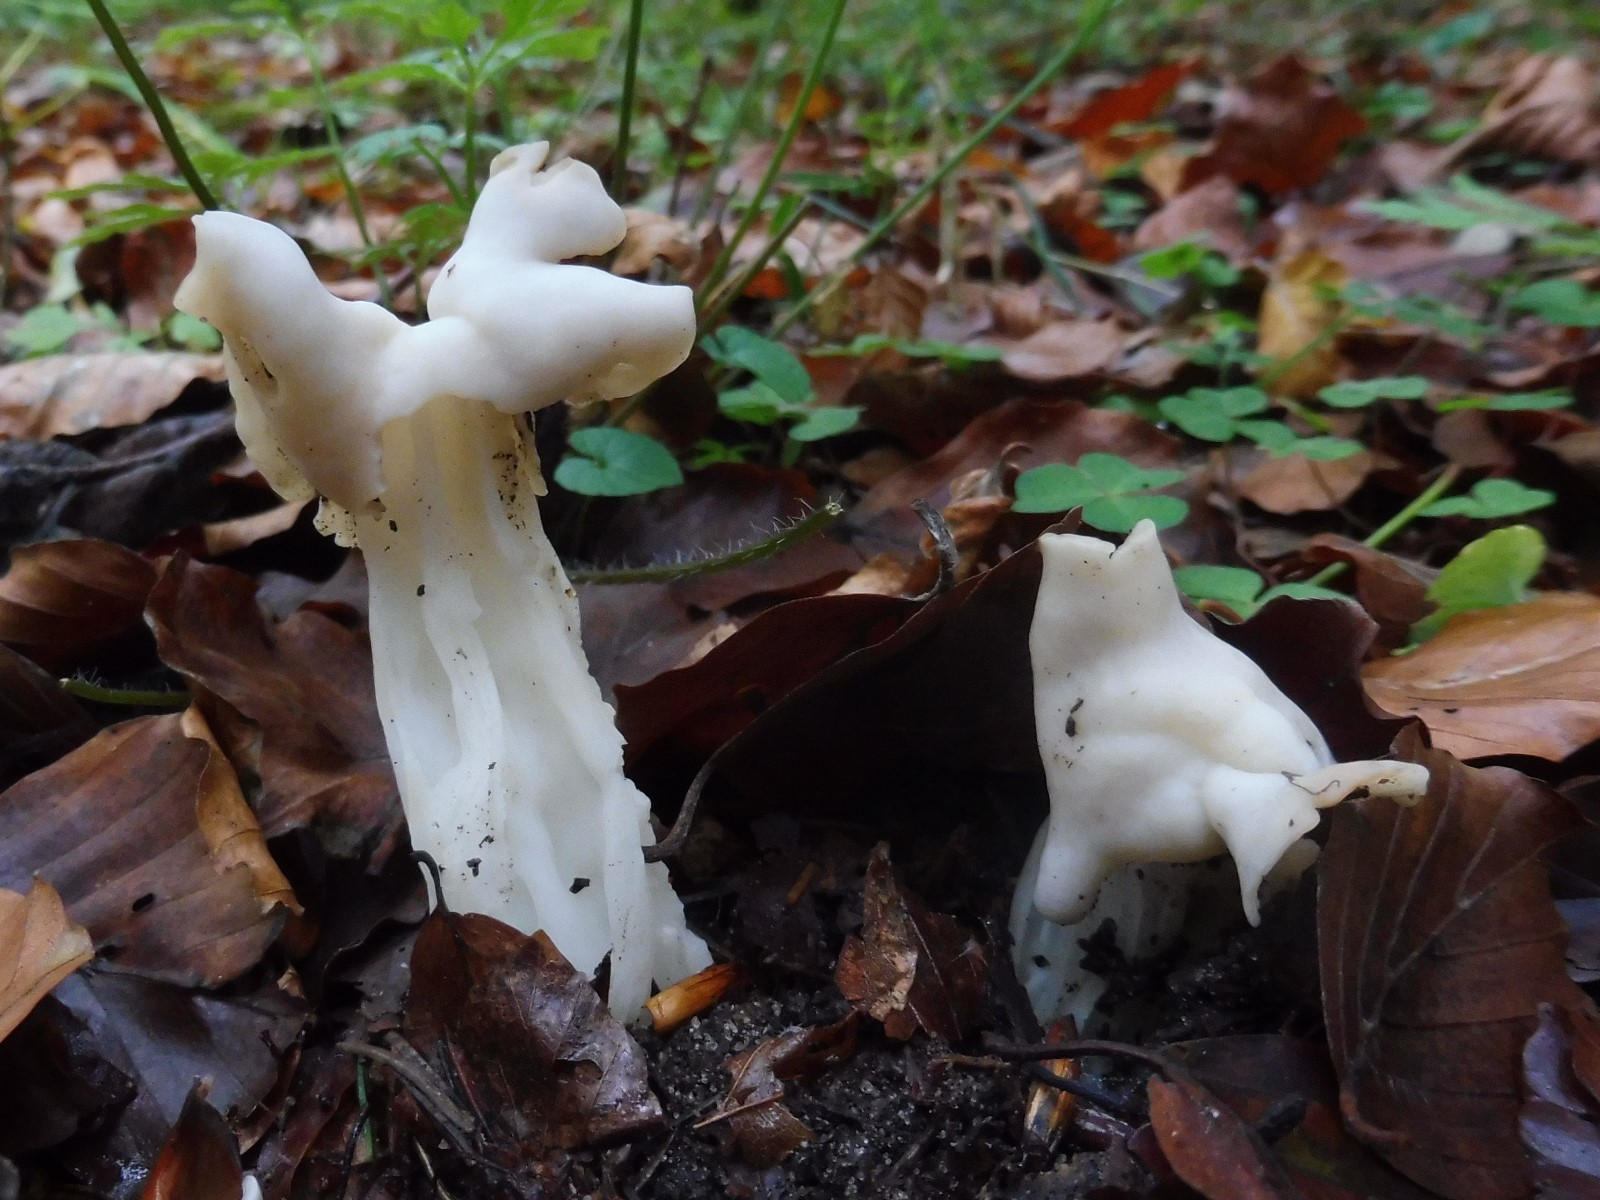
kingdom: Fungi
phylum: Ascomycota
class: Pezizomycetes
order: Pezizales
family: Helvellaceae
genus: Helvella
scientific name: Helvella crispa
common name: kruset foldhat
